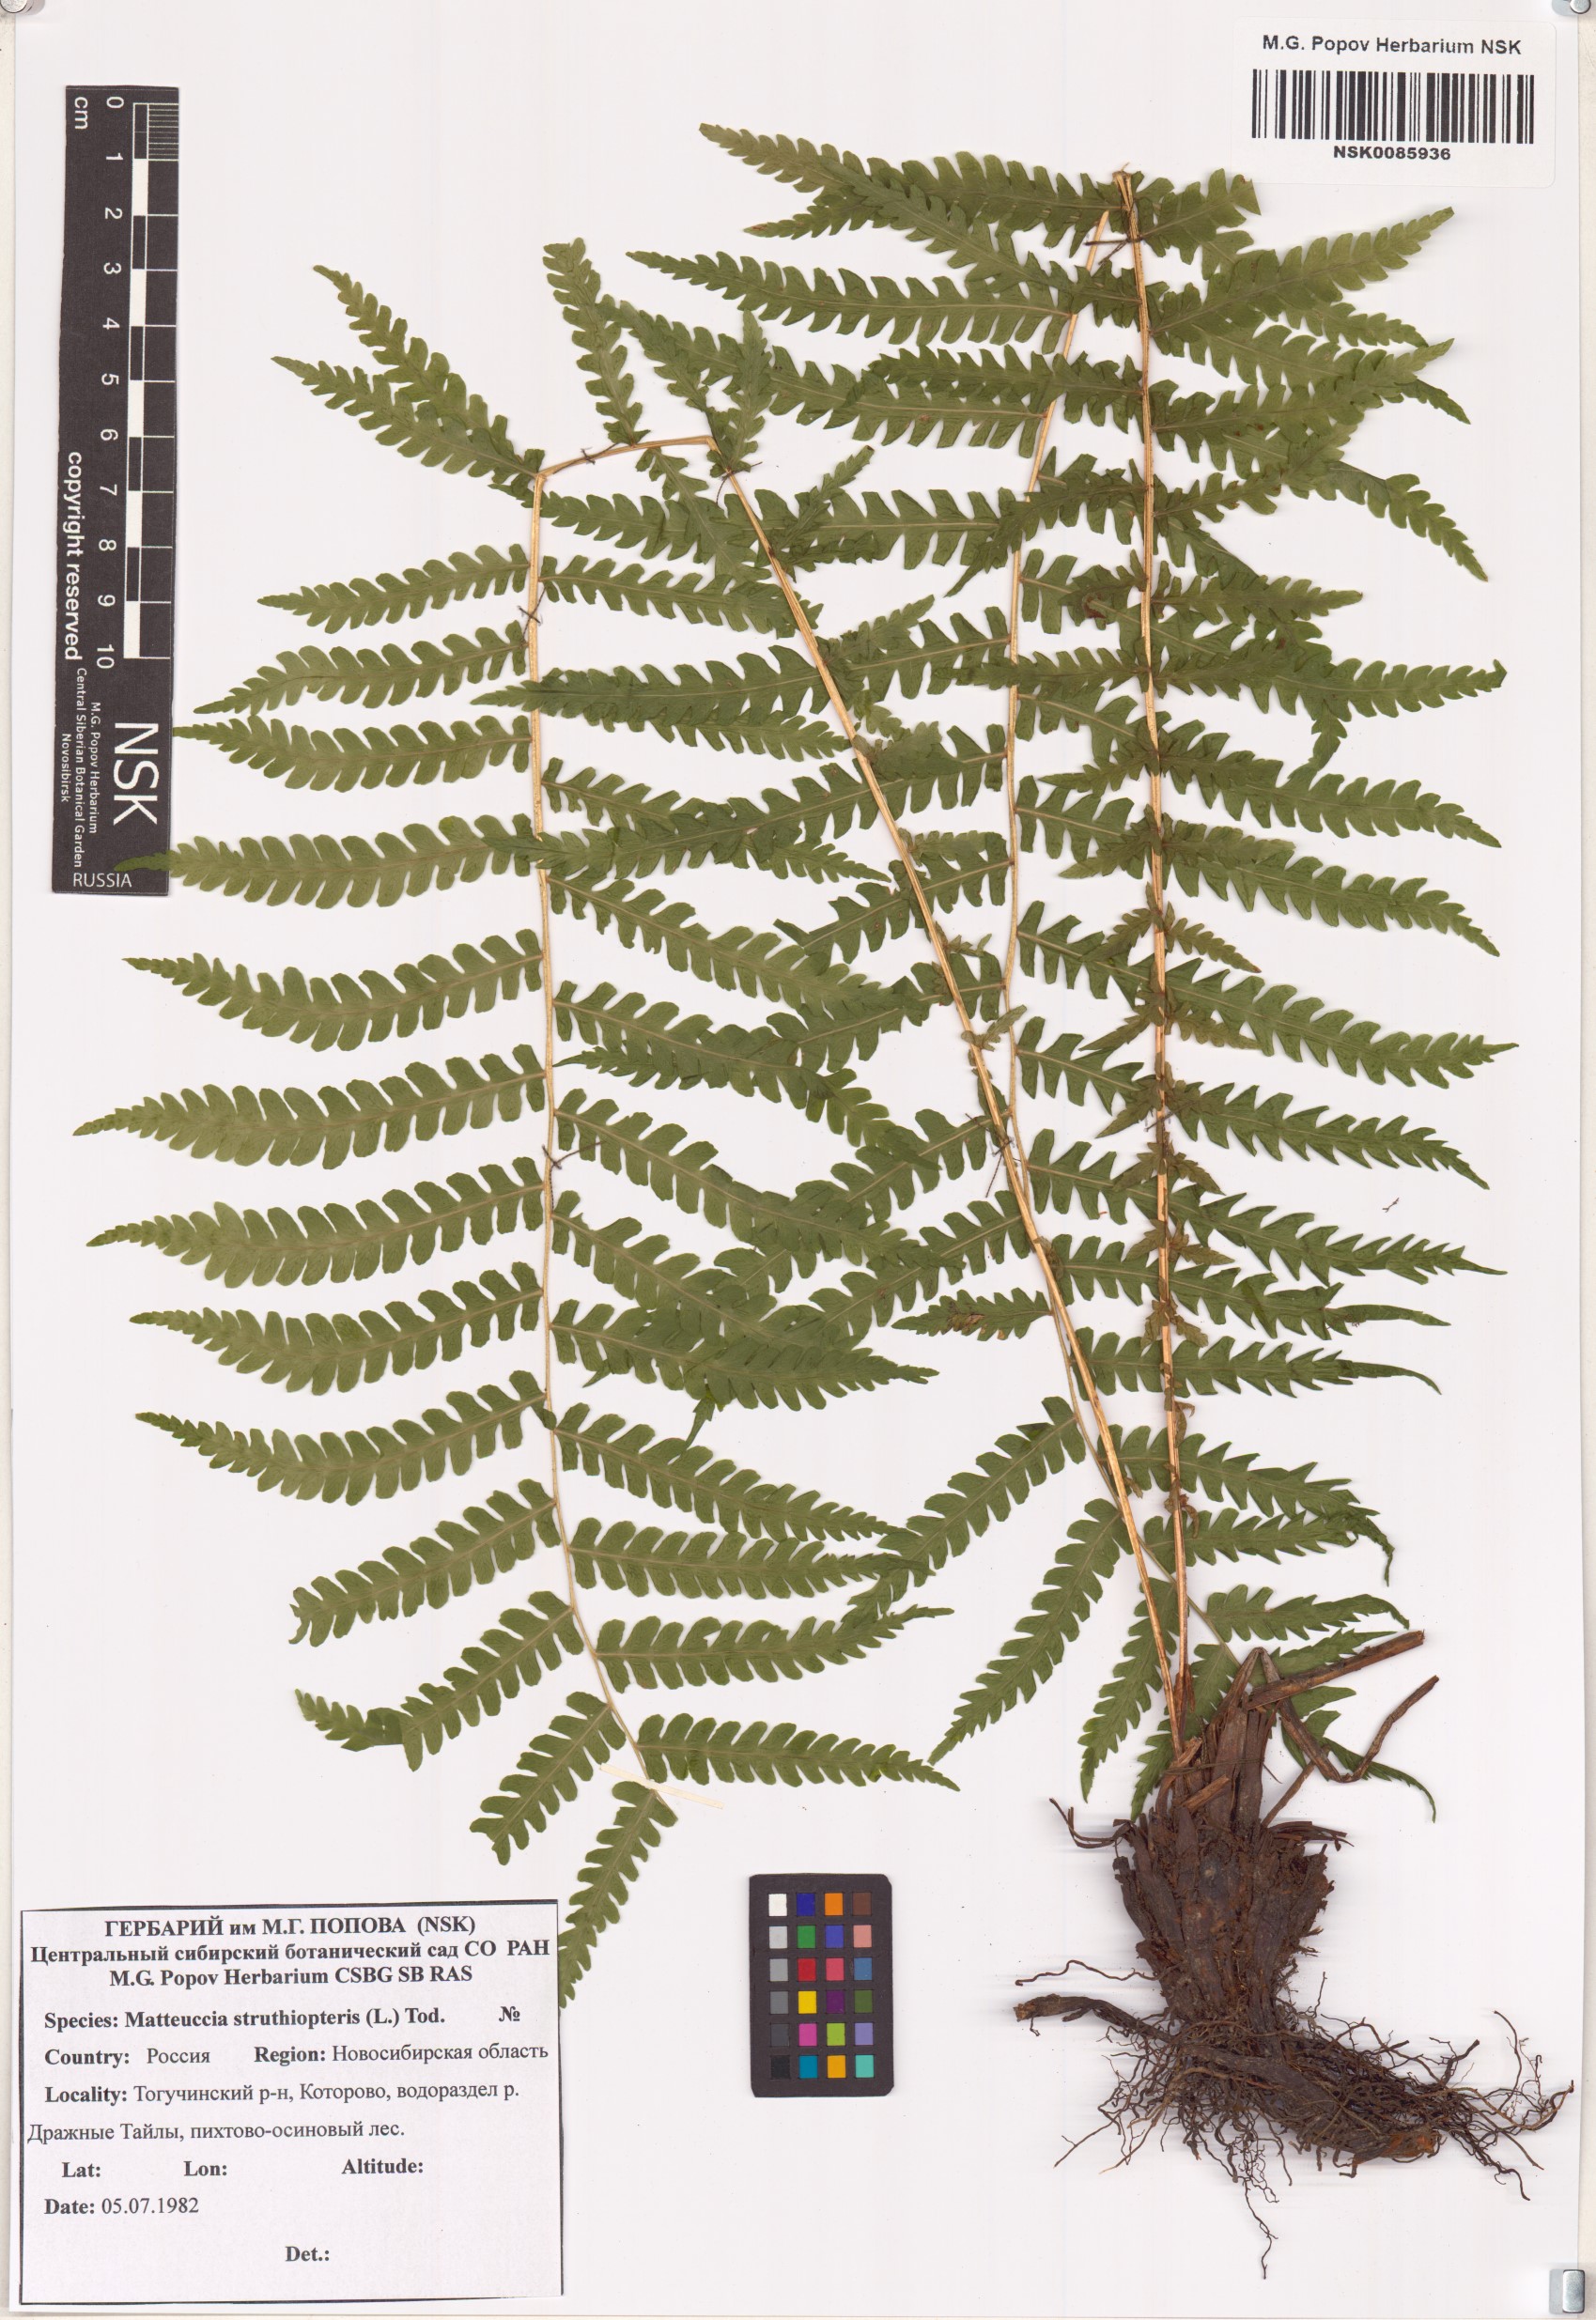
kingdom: Plantae
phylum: Tracheophyta
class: Polypodiopsida
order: Polypodiales
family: Onocleaceae
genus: Matteuccia
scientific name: Matteuccia struthiopteris
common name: Ostrich fern
